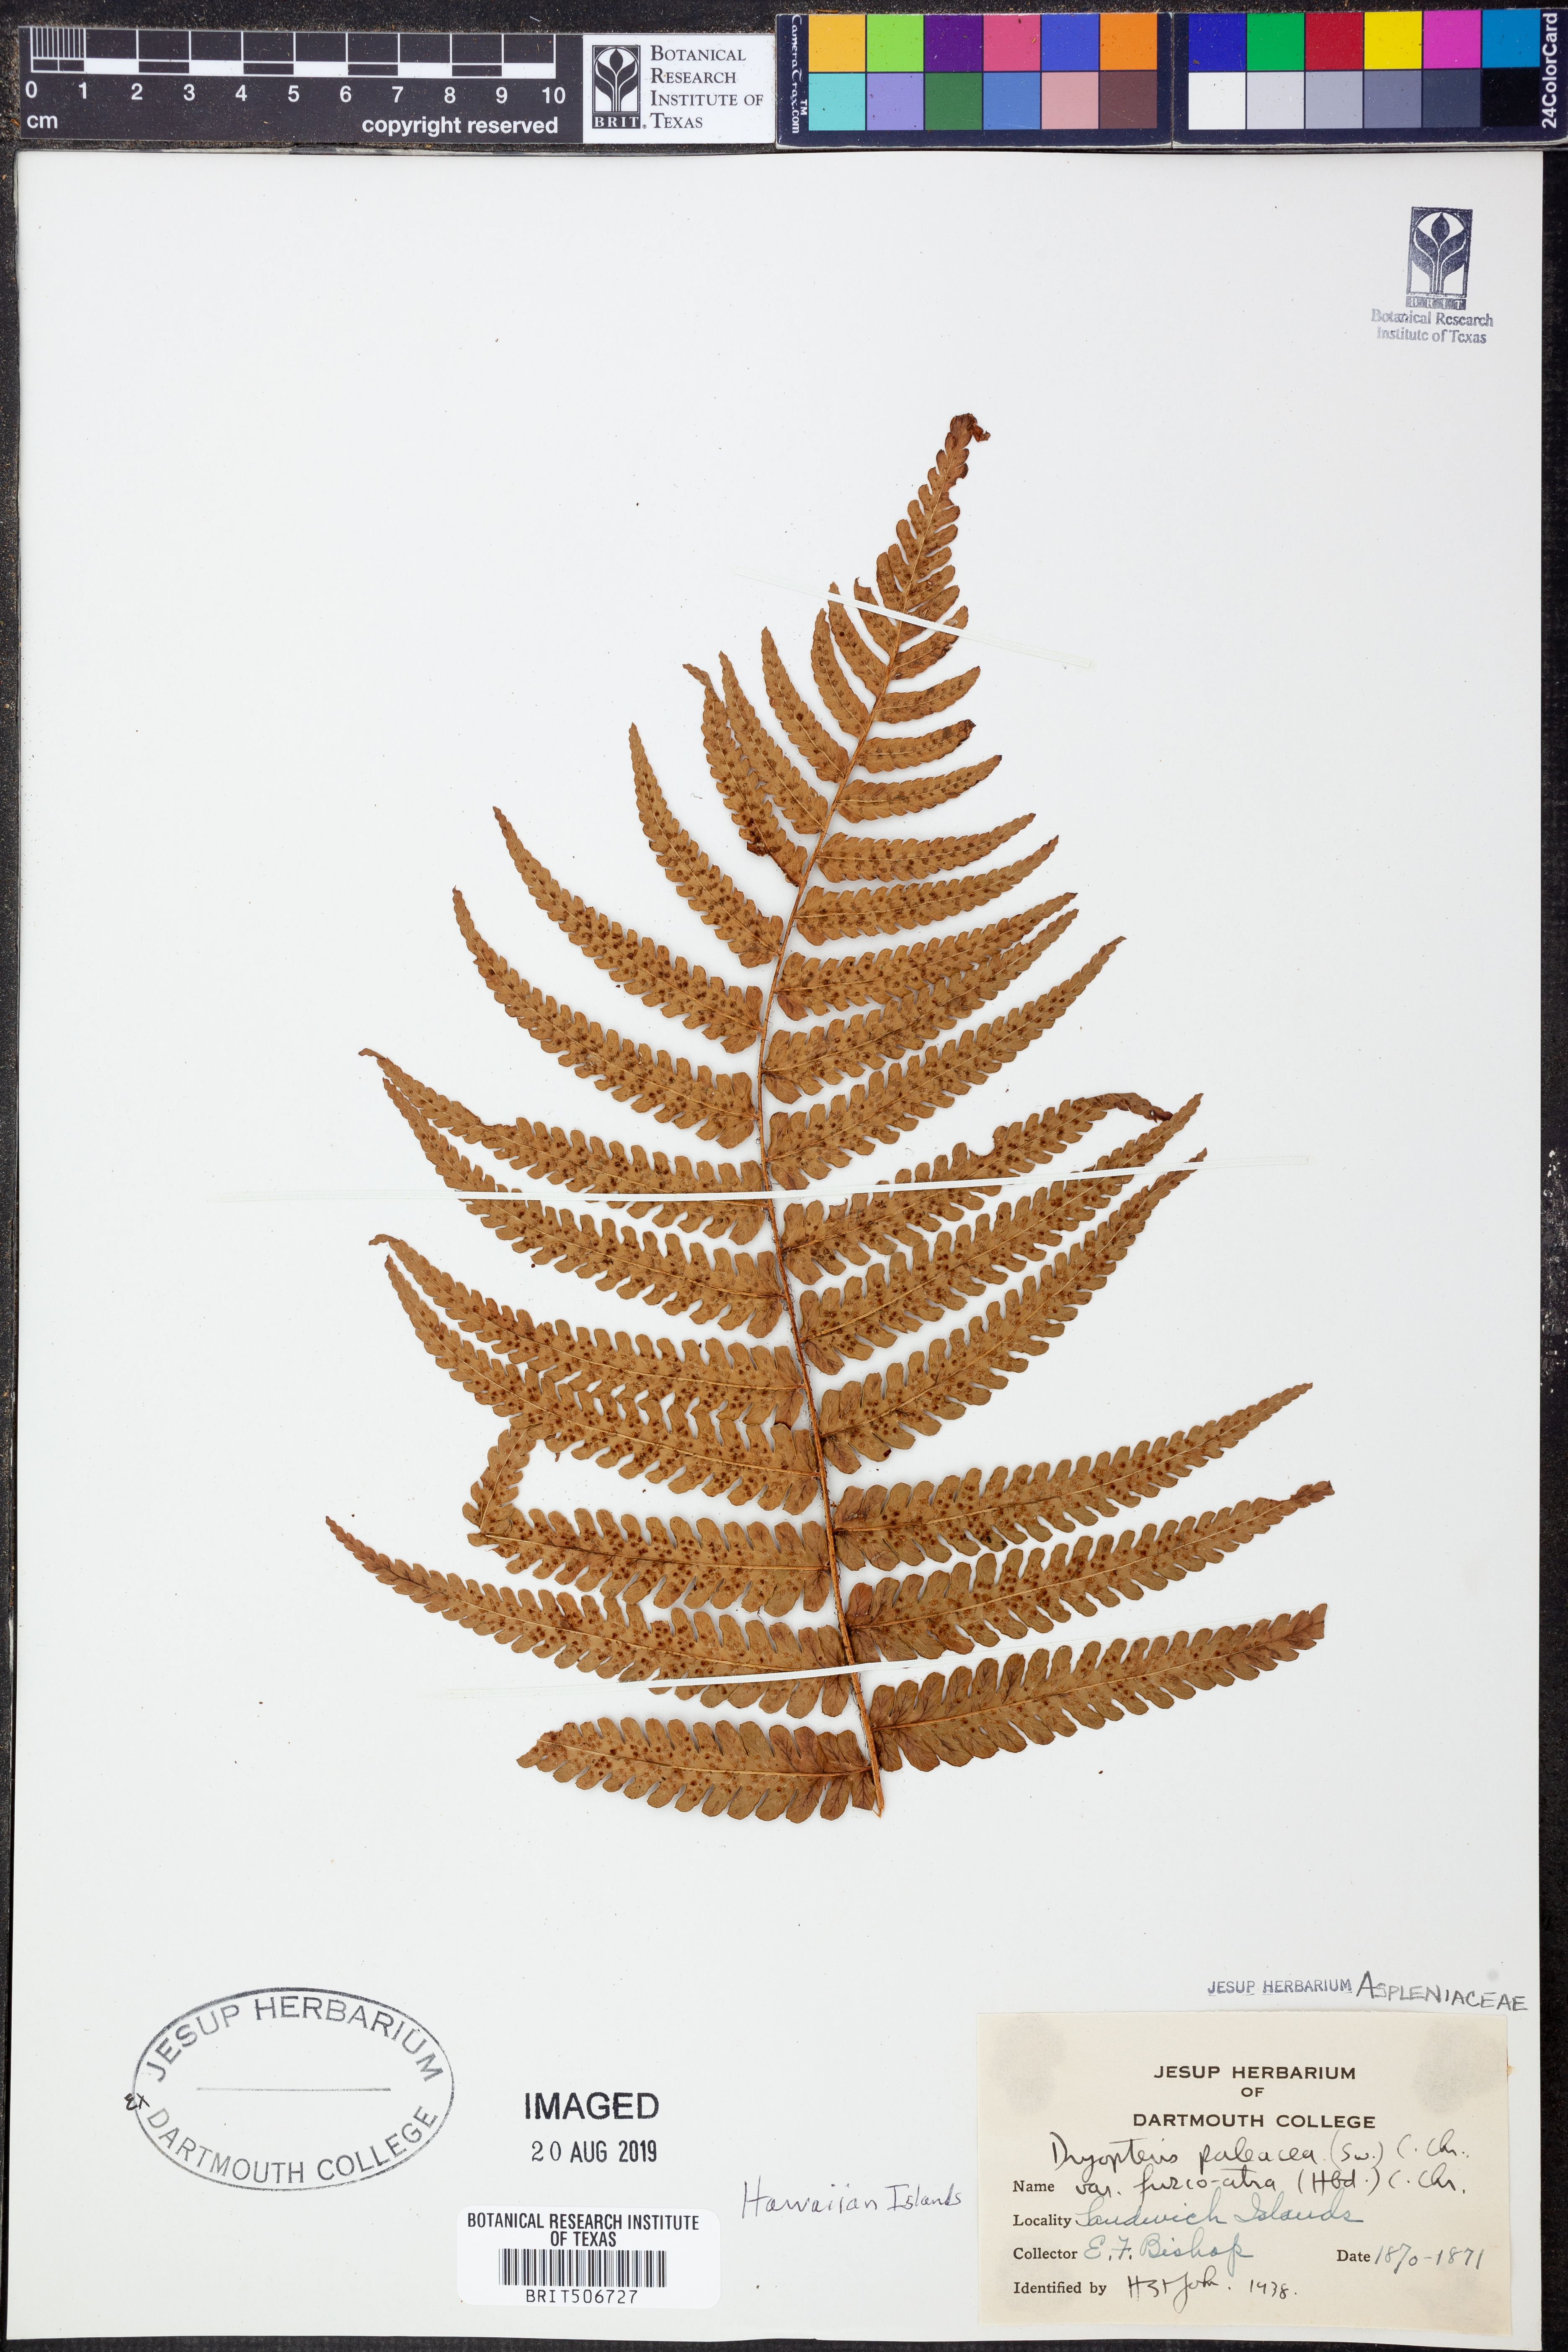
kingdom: Plantae
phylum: Tracheophyta
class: Polypodiopsida
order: Polypodiales
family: Dryopteridaceae
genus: Dryopteris
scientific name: Dryopteris wallichiana
